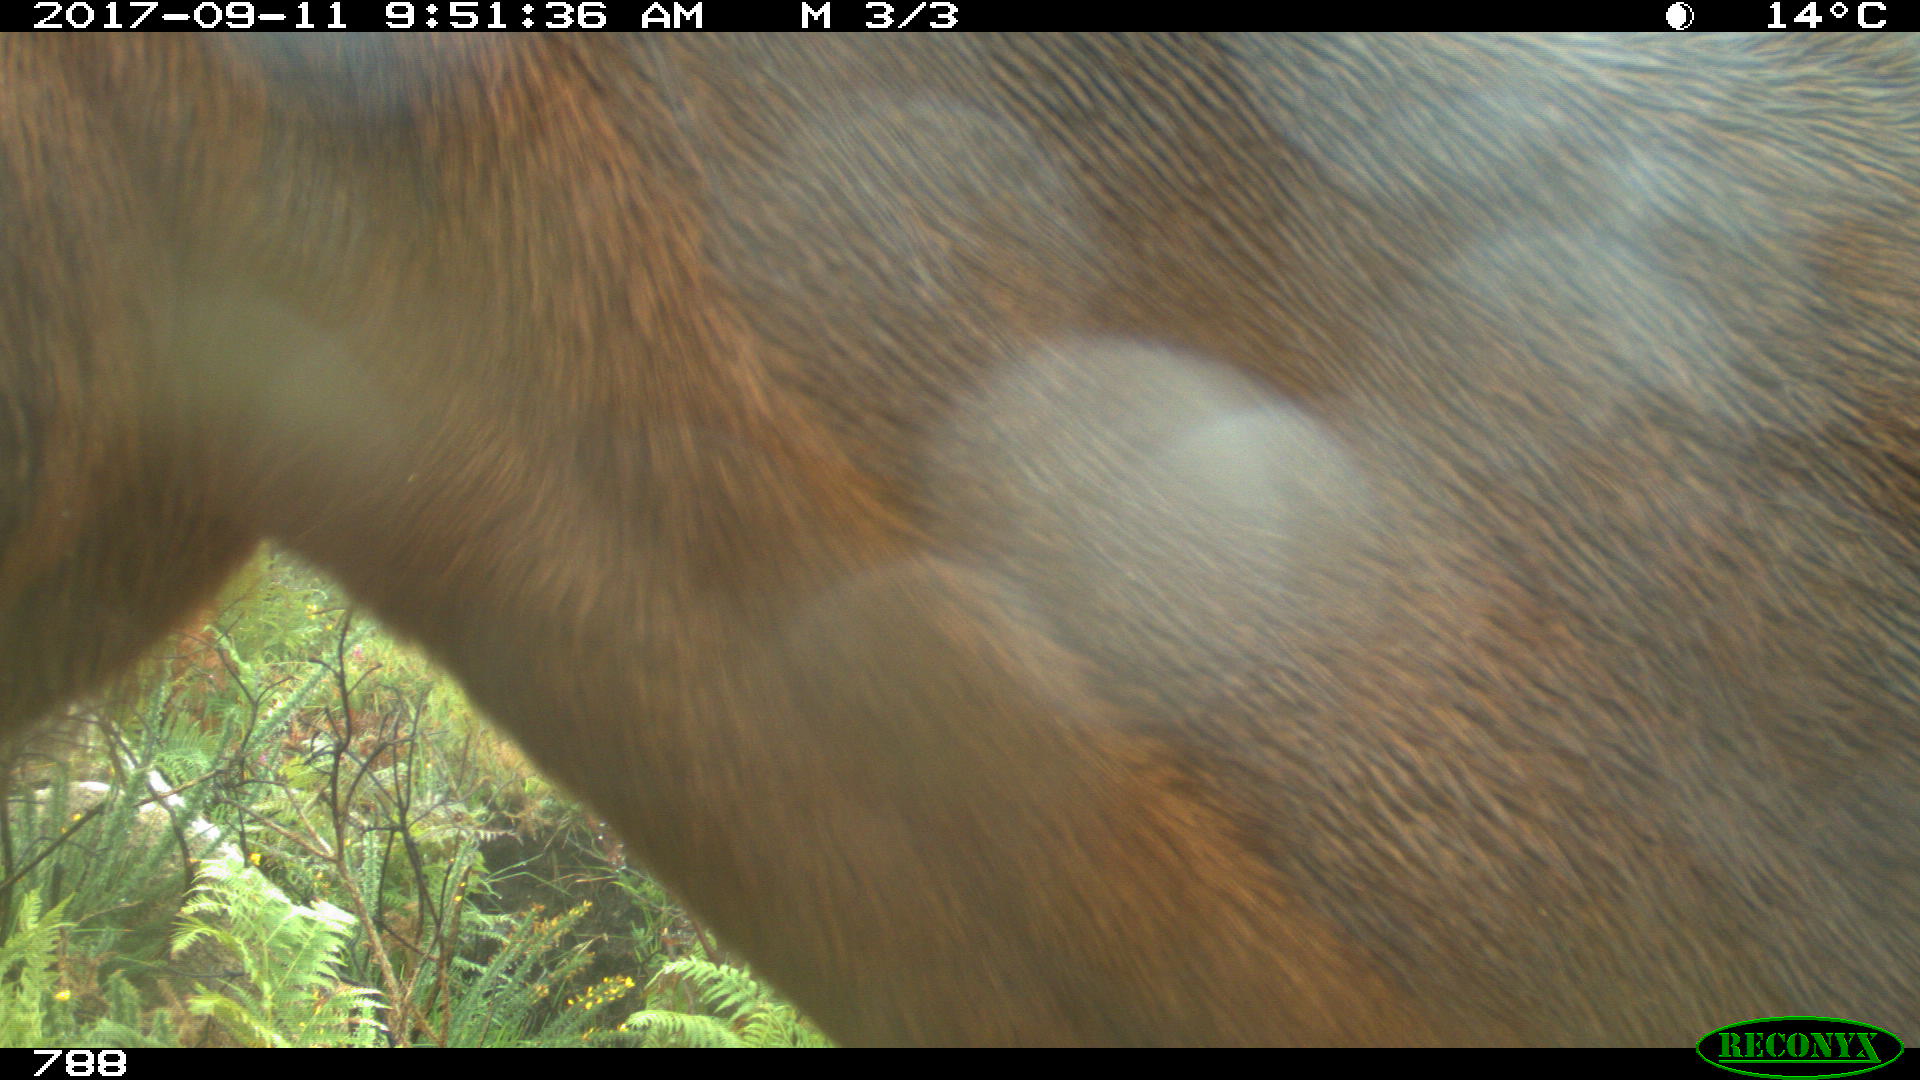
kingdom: Animalia
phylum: Chordata
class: Mammalia
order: Perissodactyla
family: Equidae
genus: Equus
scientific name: Equus caballus
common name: Horse
